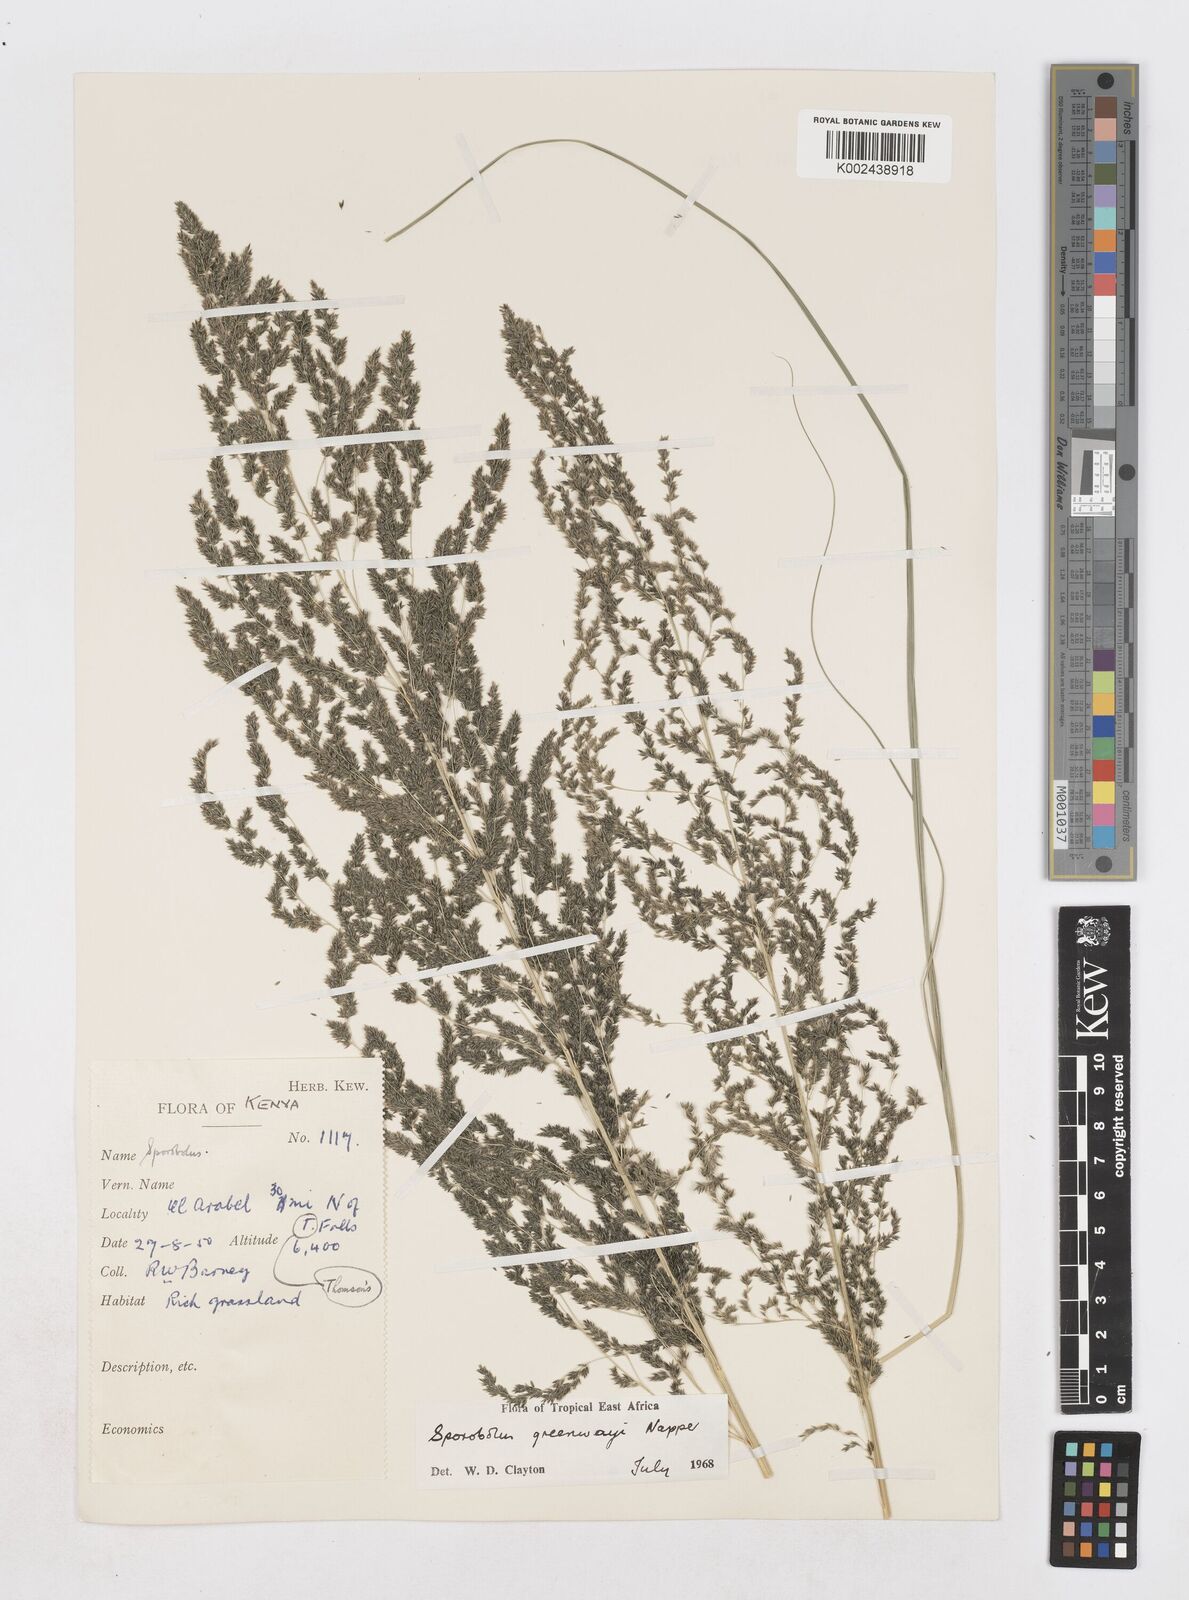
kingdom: Plantae
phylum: Tracheophyta
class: Liliopsida
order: Poales
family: Poaceae
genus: Sporobolus
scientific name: Sporobolus macranthelus
